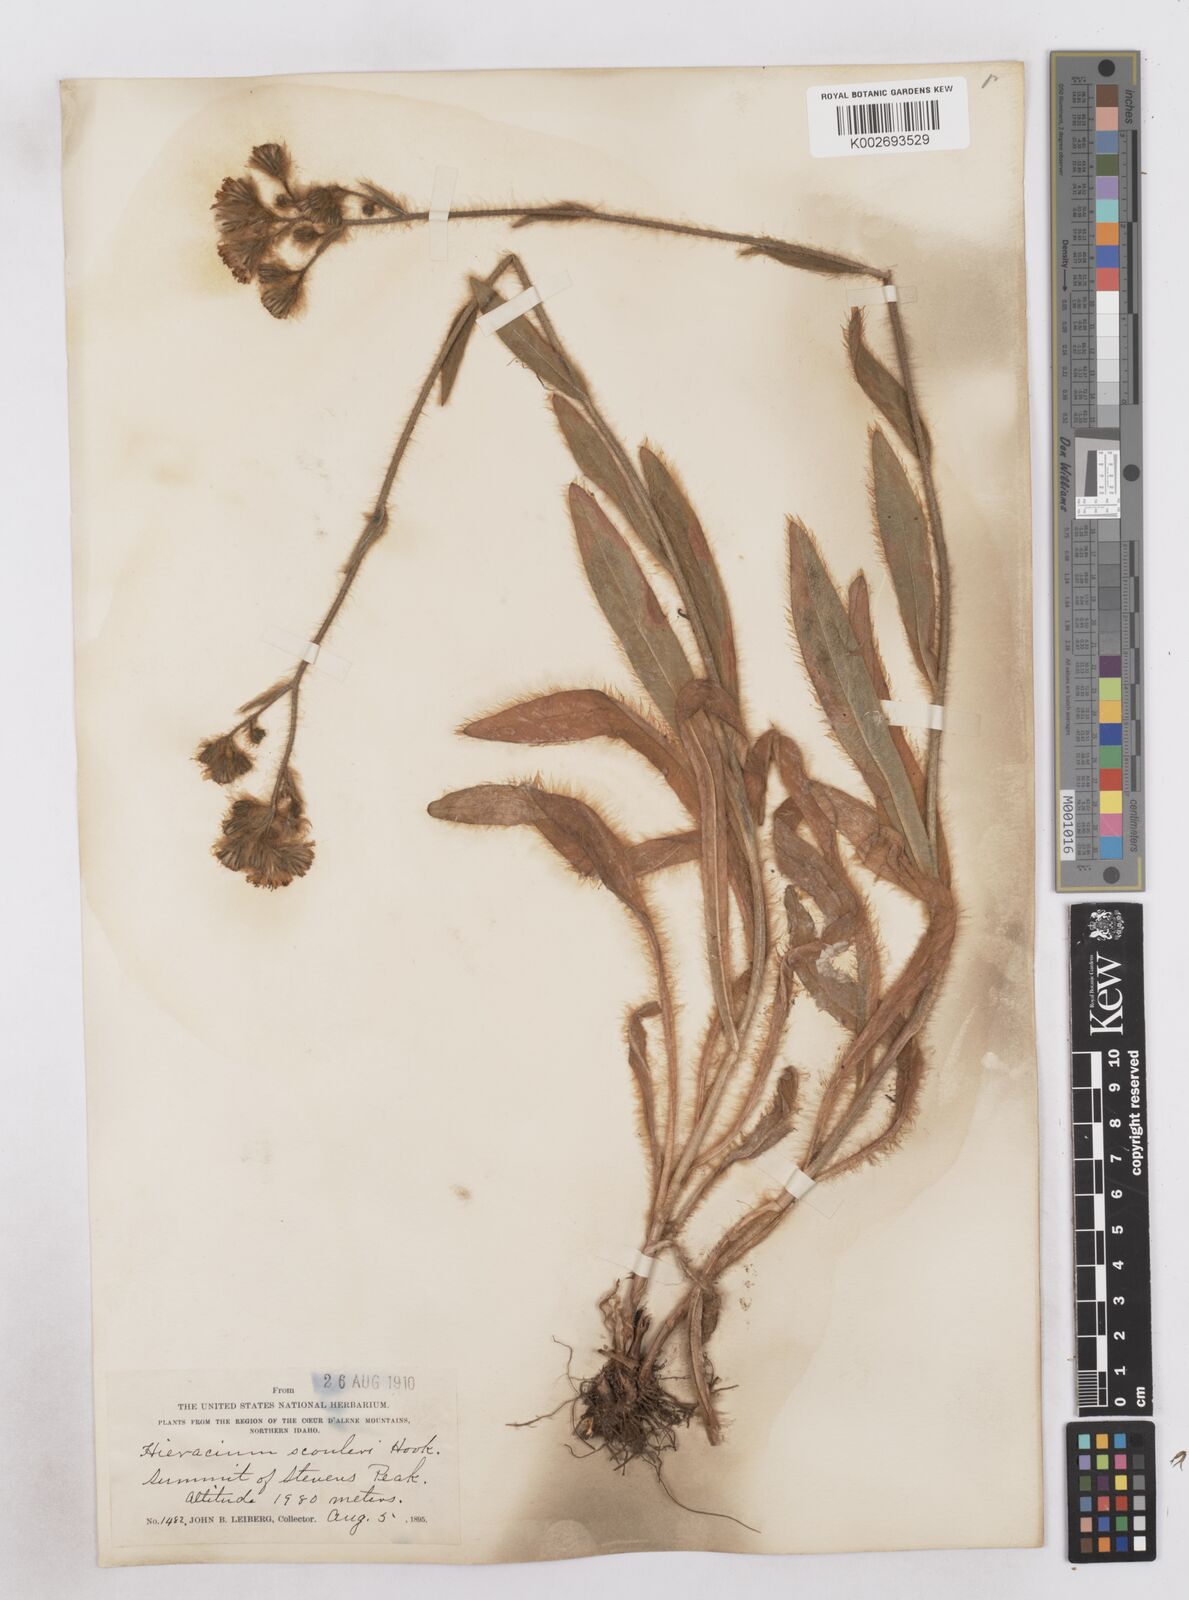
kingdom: Plantae
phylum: Tracheophyta
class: Magnoliopsida
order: Asterales
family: Asteraceae
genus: Hieracium
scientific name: Hieracium scouleri
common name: Hound's-tongue hawkweed
